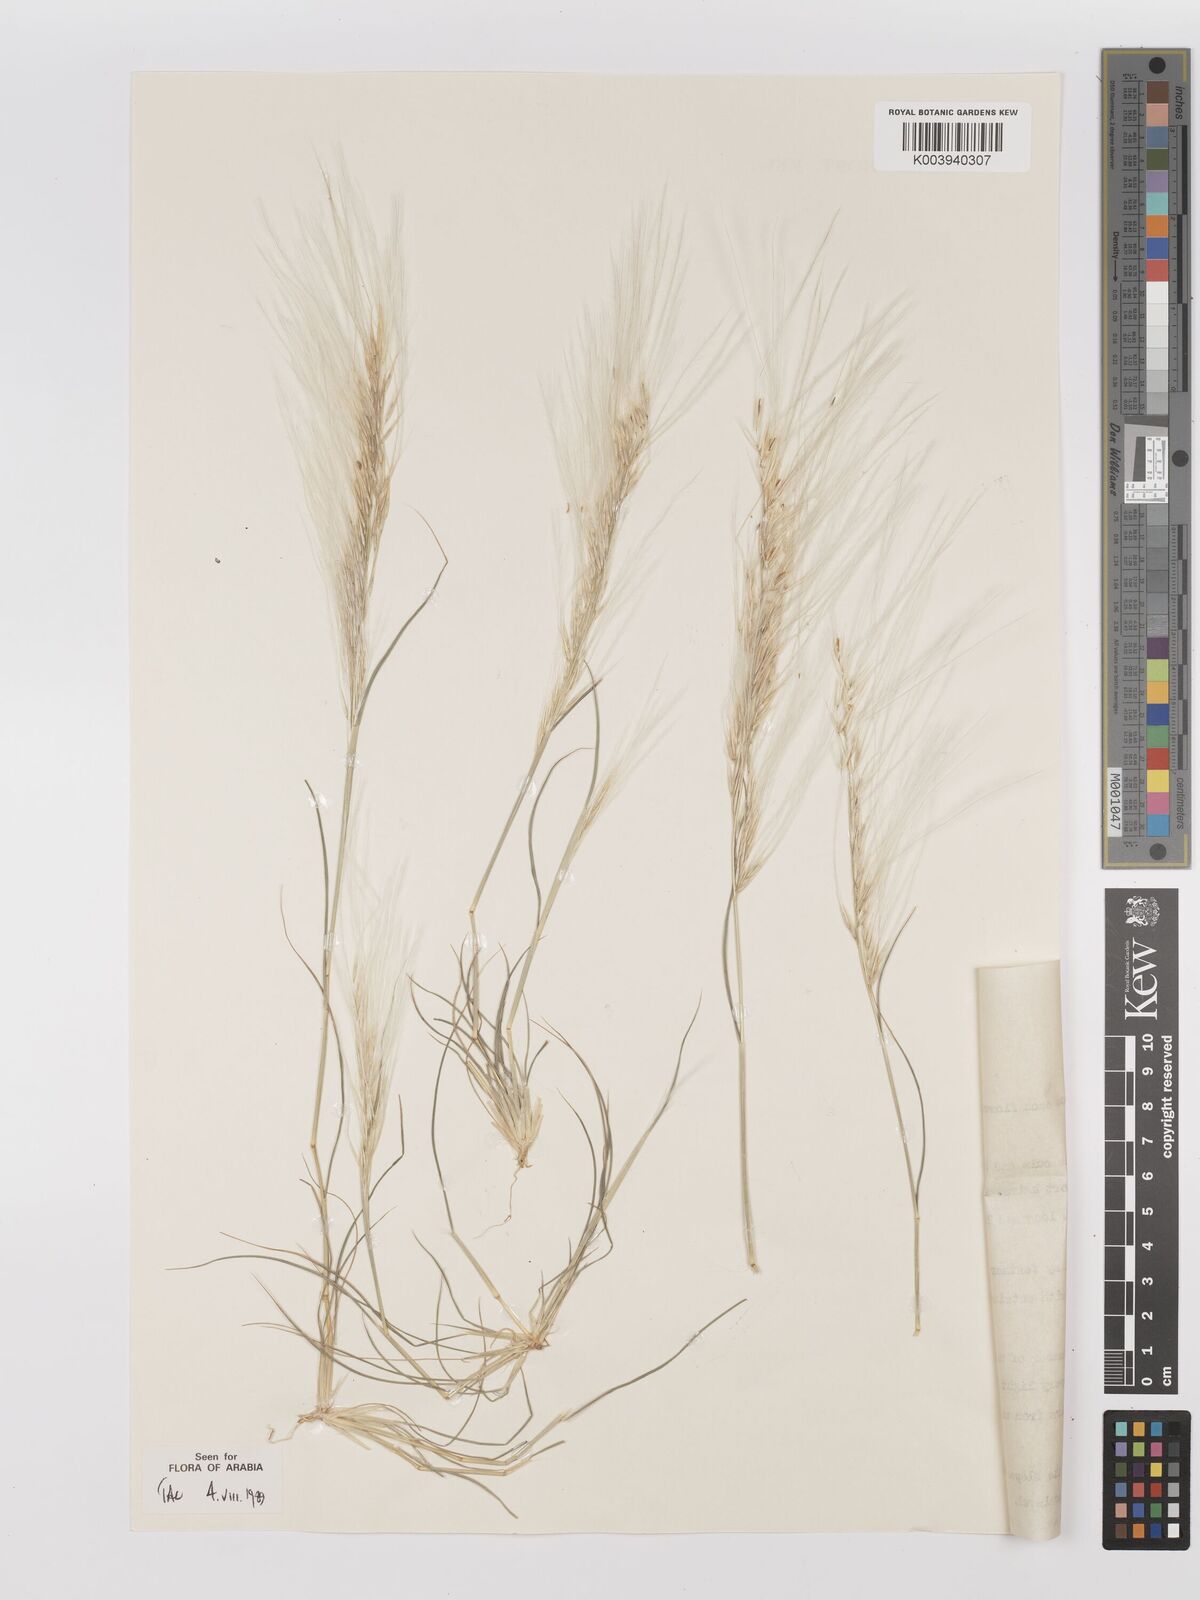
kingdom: Plantae
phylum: Tracheophyta
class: Liliopsida
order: Poales
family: Poaceae
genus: Stipagrostis
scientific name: Stipagrostis hirtigluma
